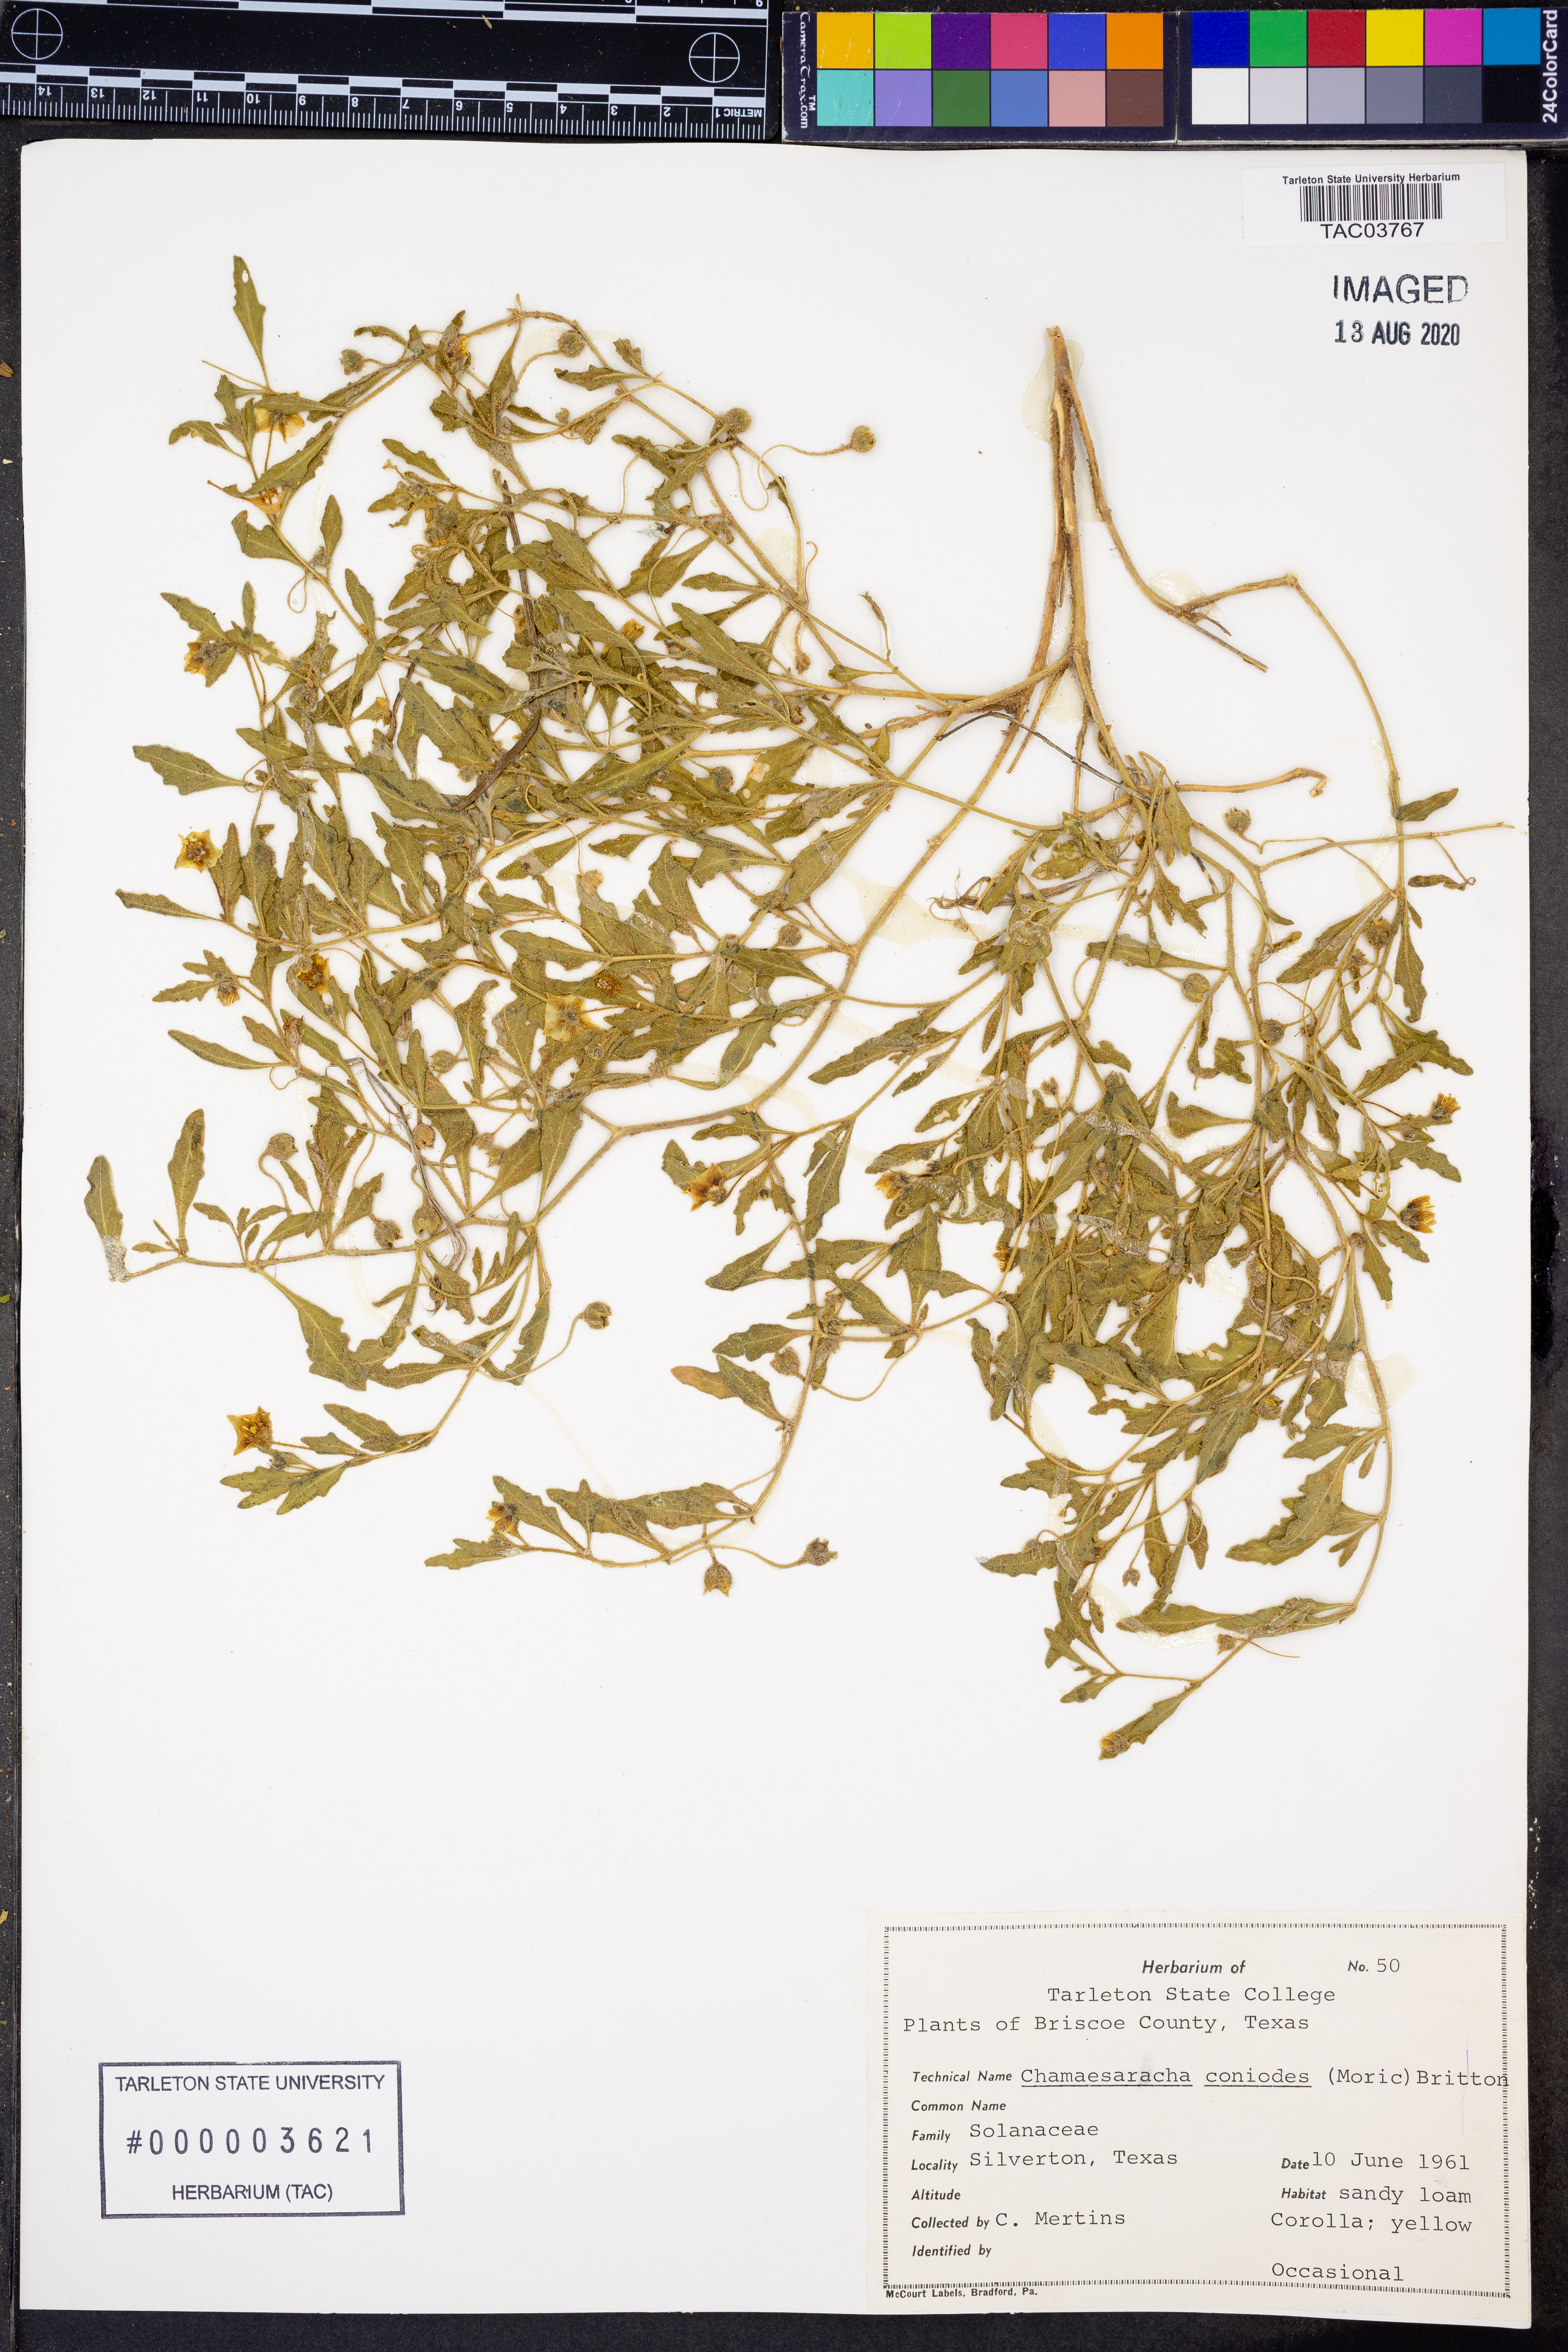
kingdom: Plantae
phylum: Tracheophyta
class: Magnoliopsida
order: Solanales
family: Solanaceae
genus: Chamaesaracha
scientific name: Chamaesaracha conioides
